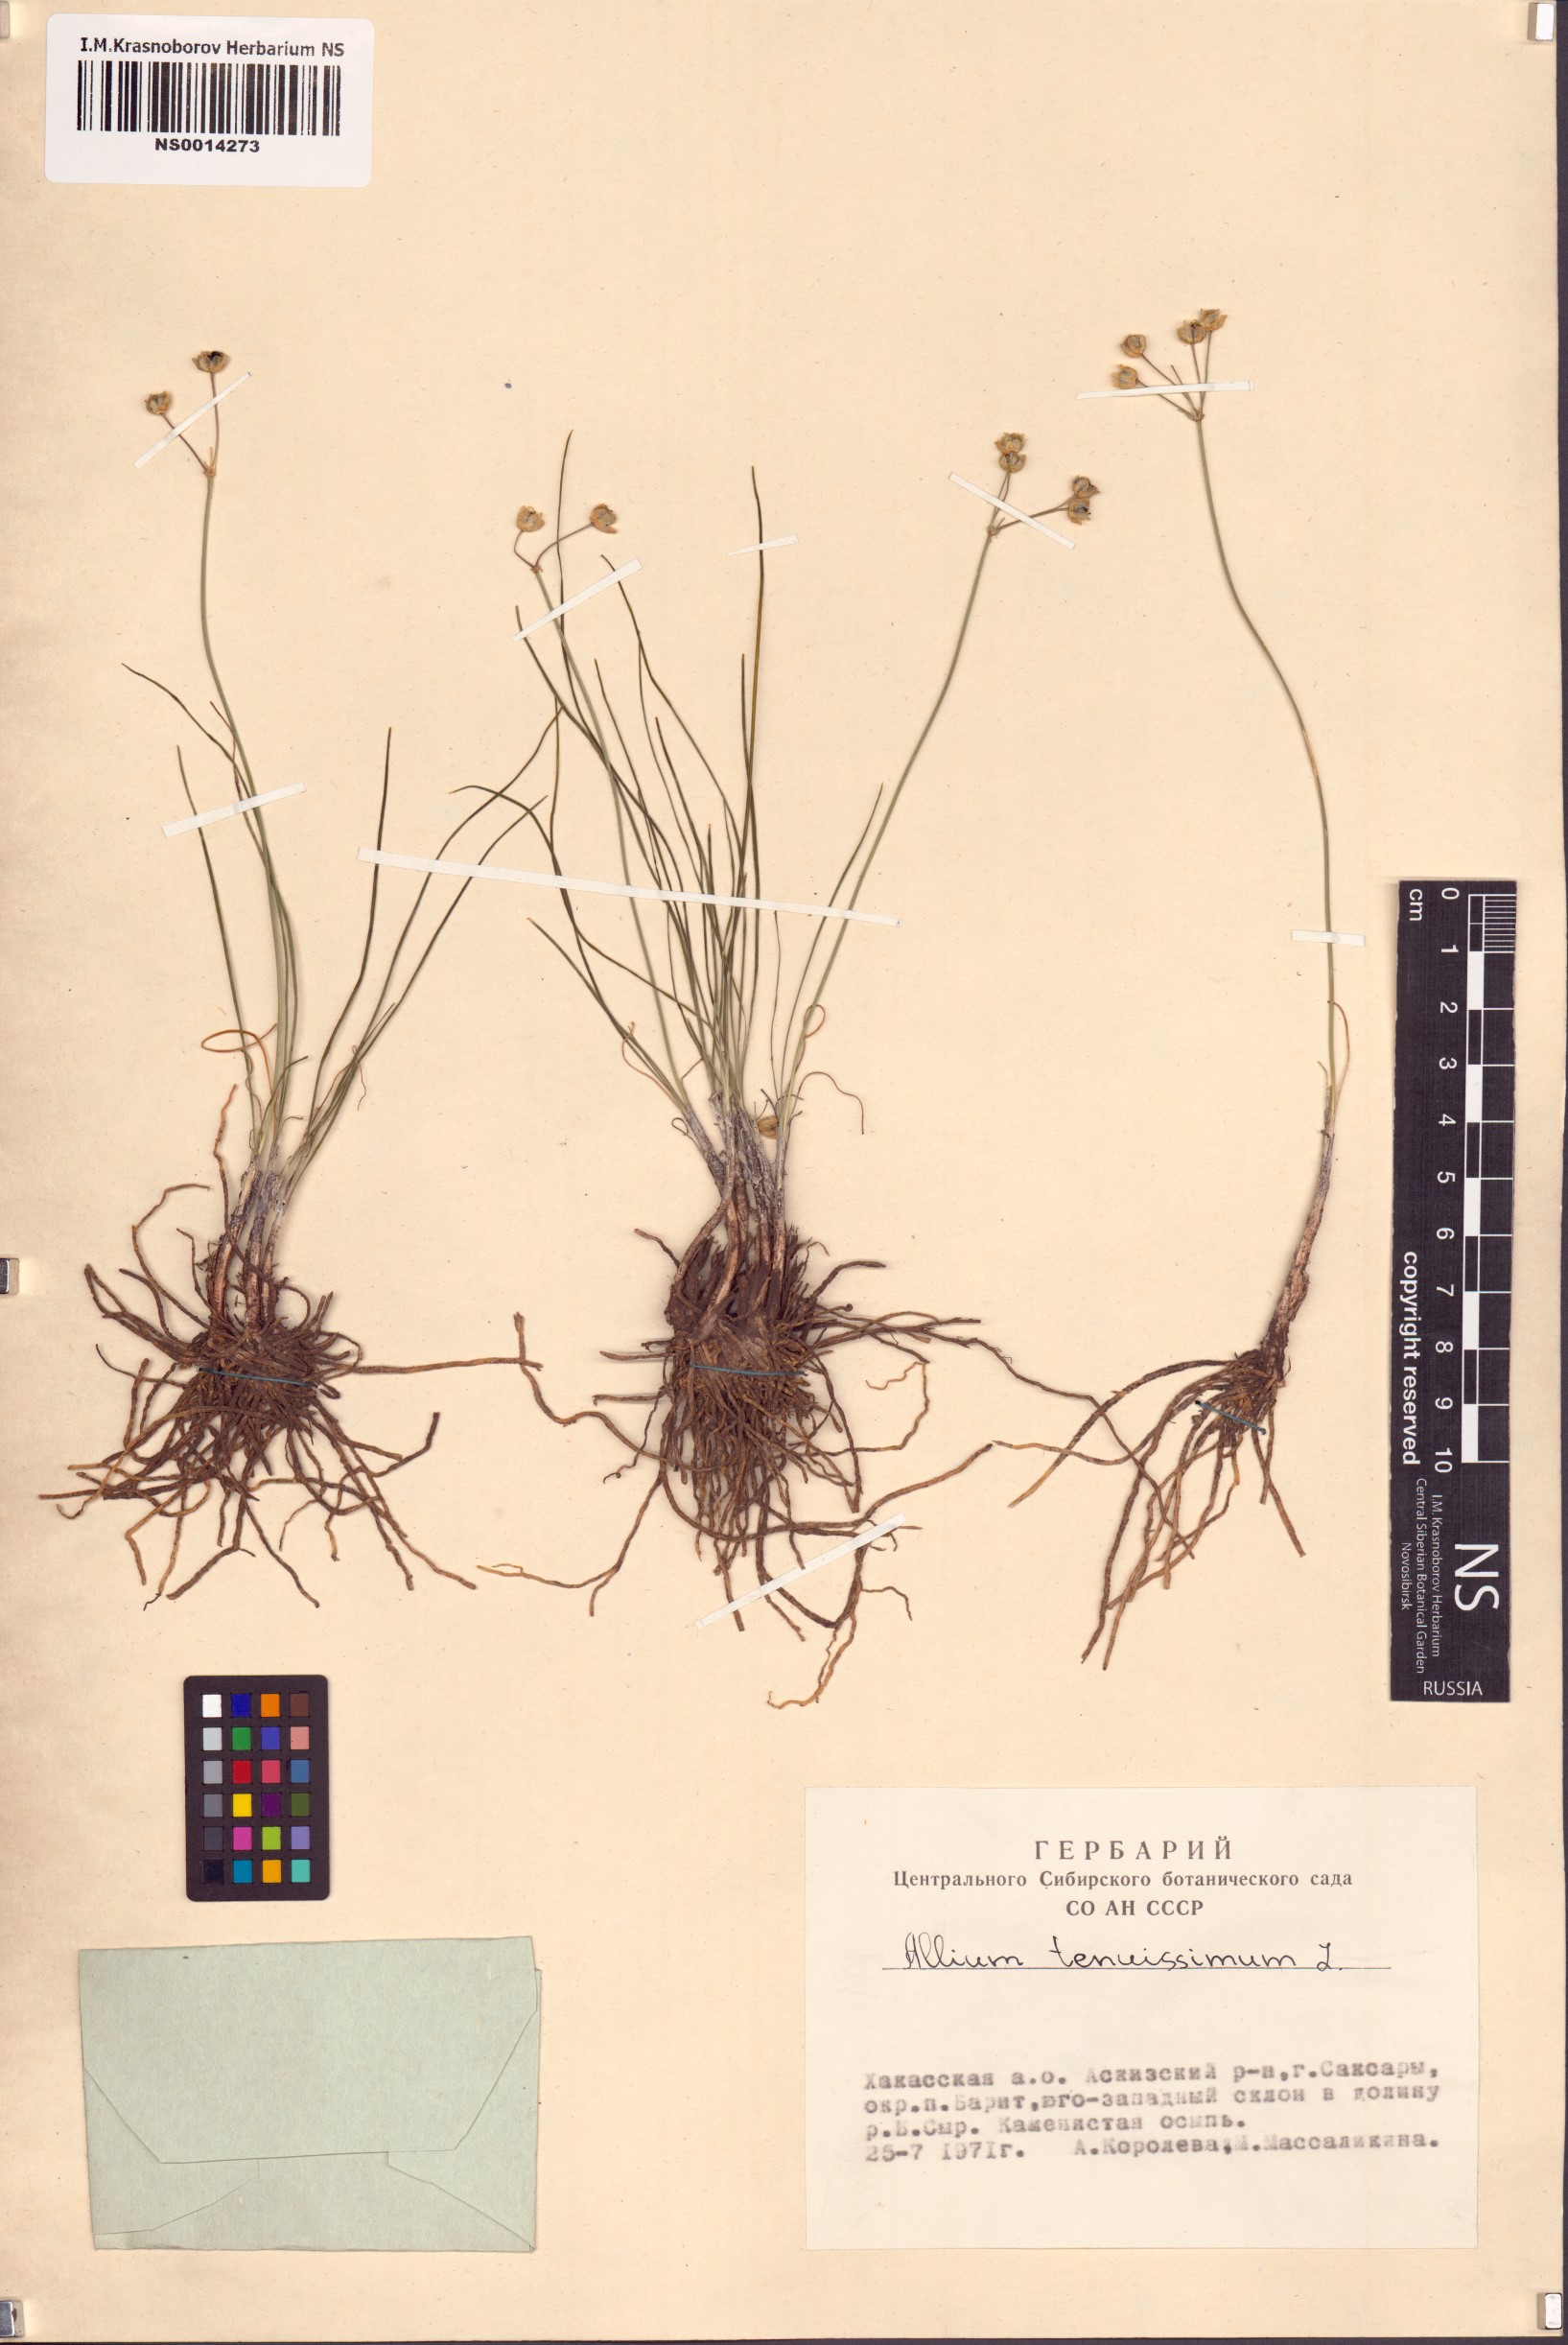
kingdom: Plantae
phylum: Tracheophyta
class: Liliopsida
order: Asparagales
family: Amaryllidaceae
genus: Allium
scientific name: Allium tenuissimum
